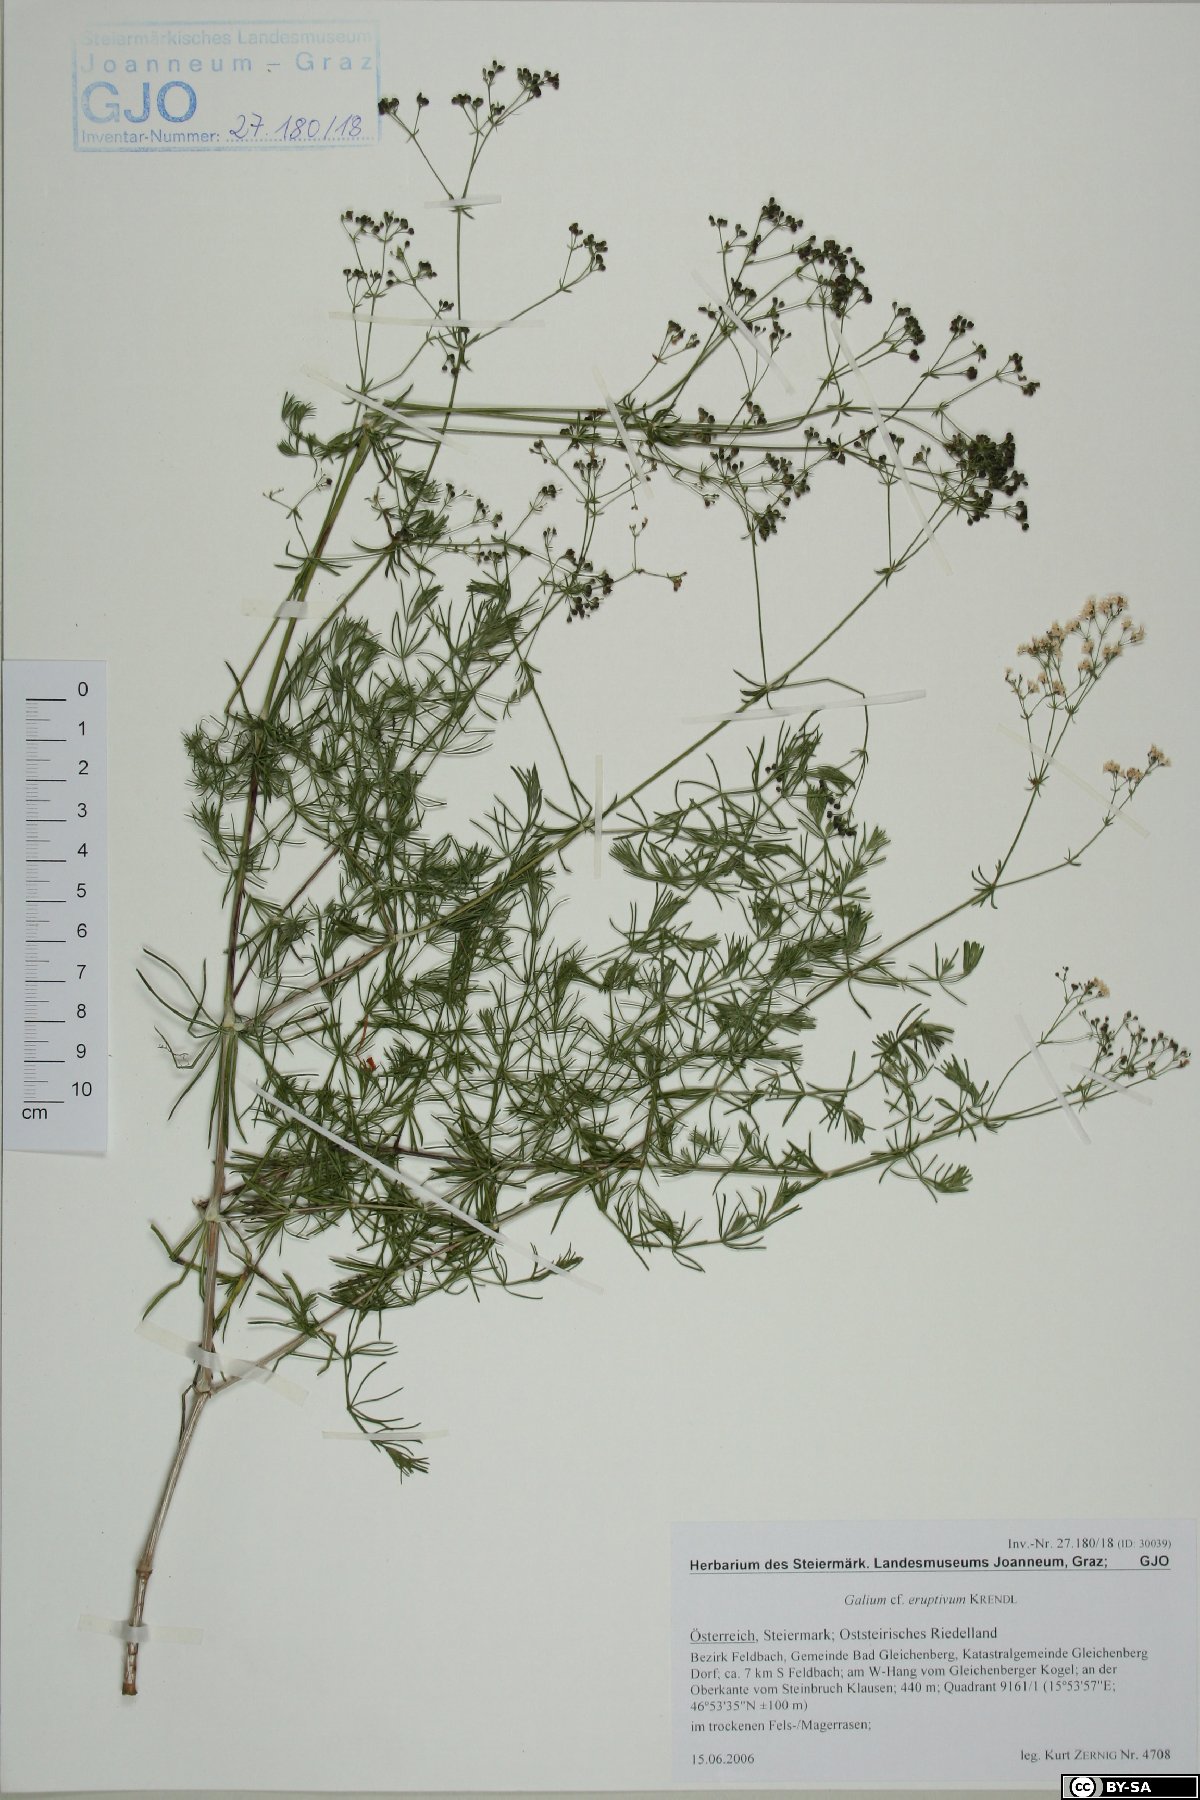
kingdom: Plantae
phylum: Tracheophyta
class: Magnoliopsida
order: Gentianales
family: Rubiaceae
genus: Galium
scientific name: Galium eruptivum
